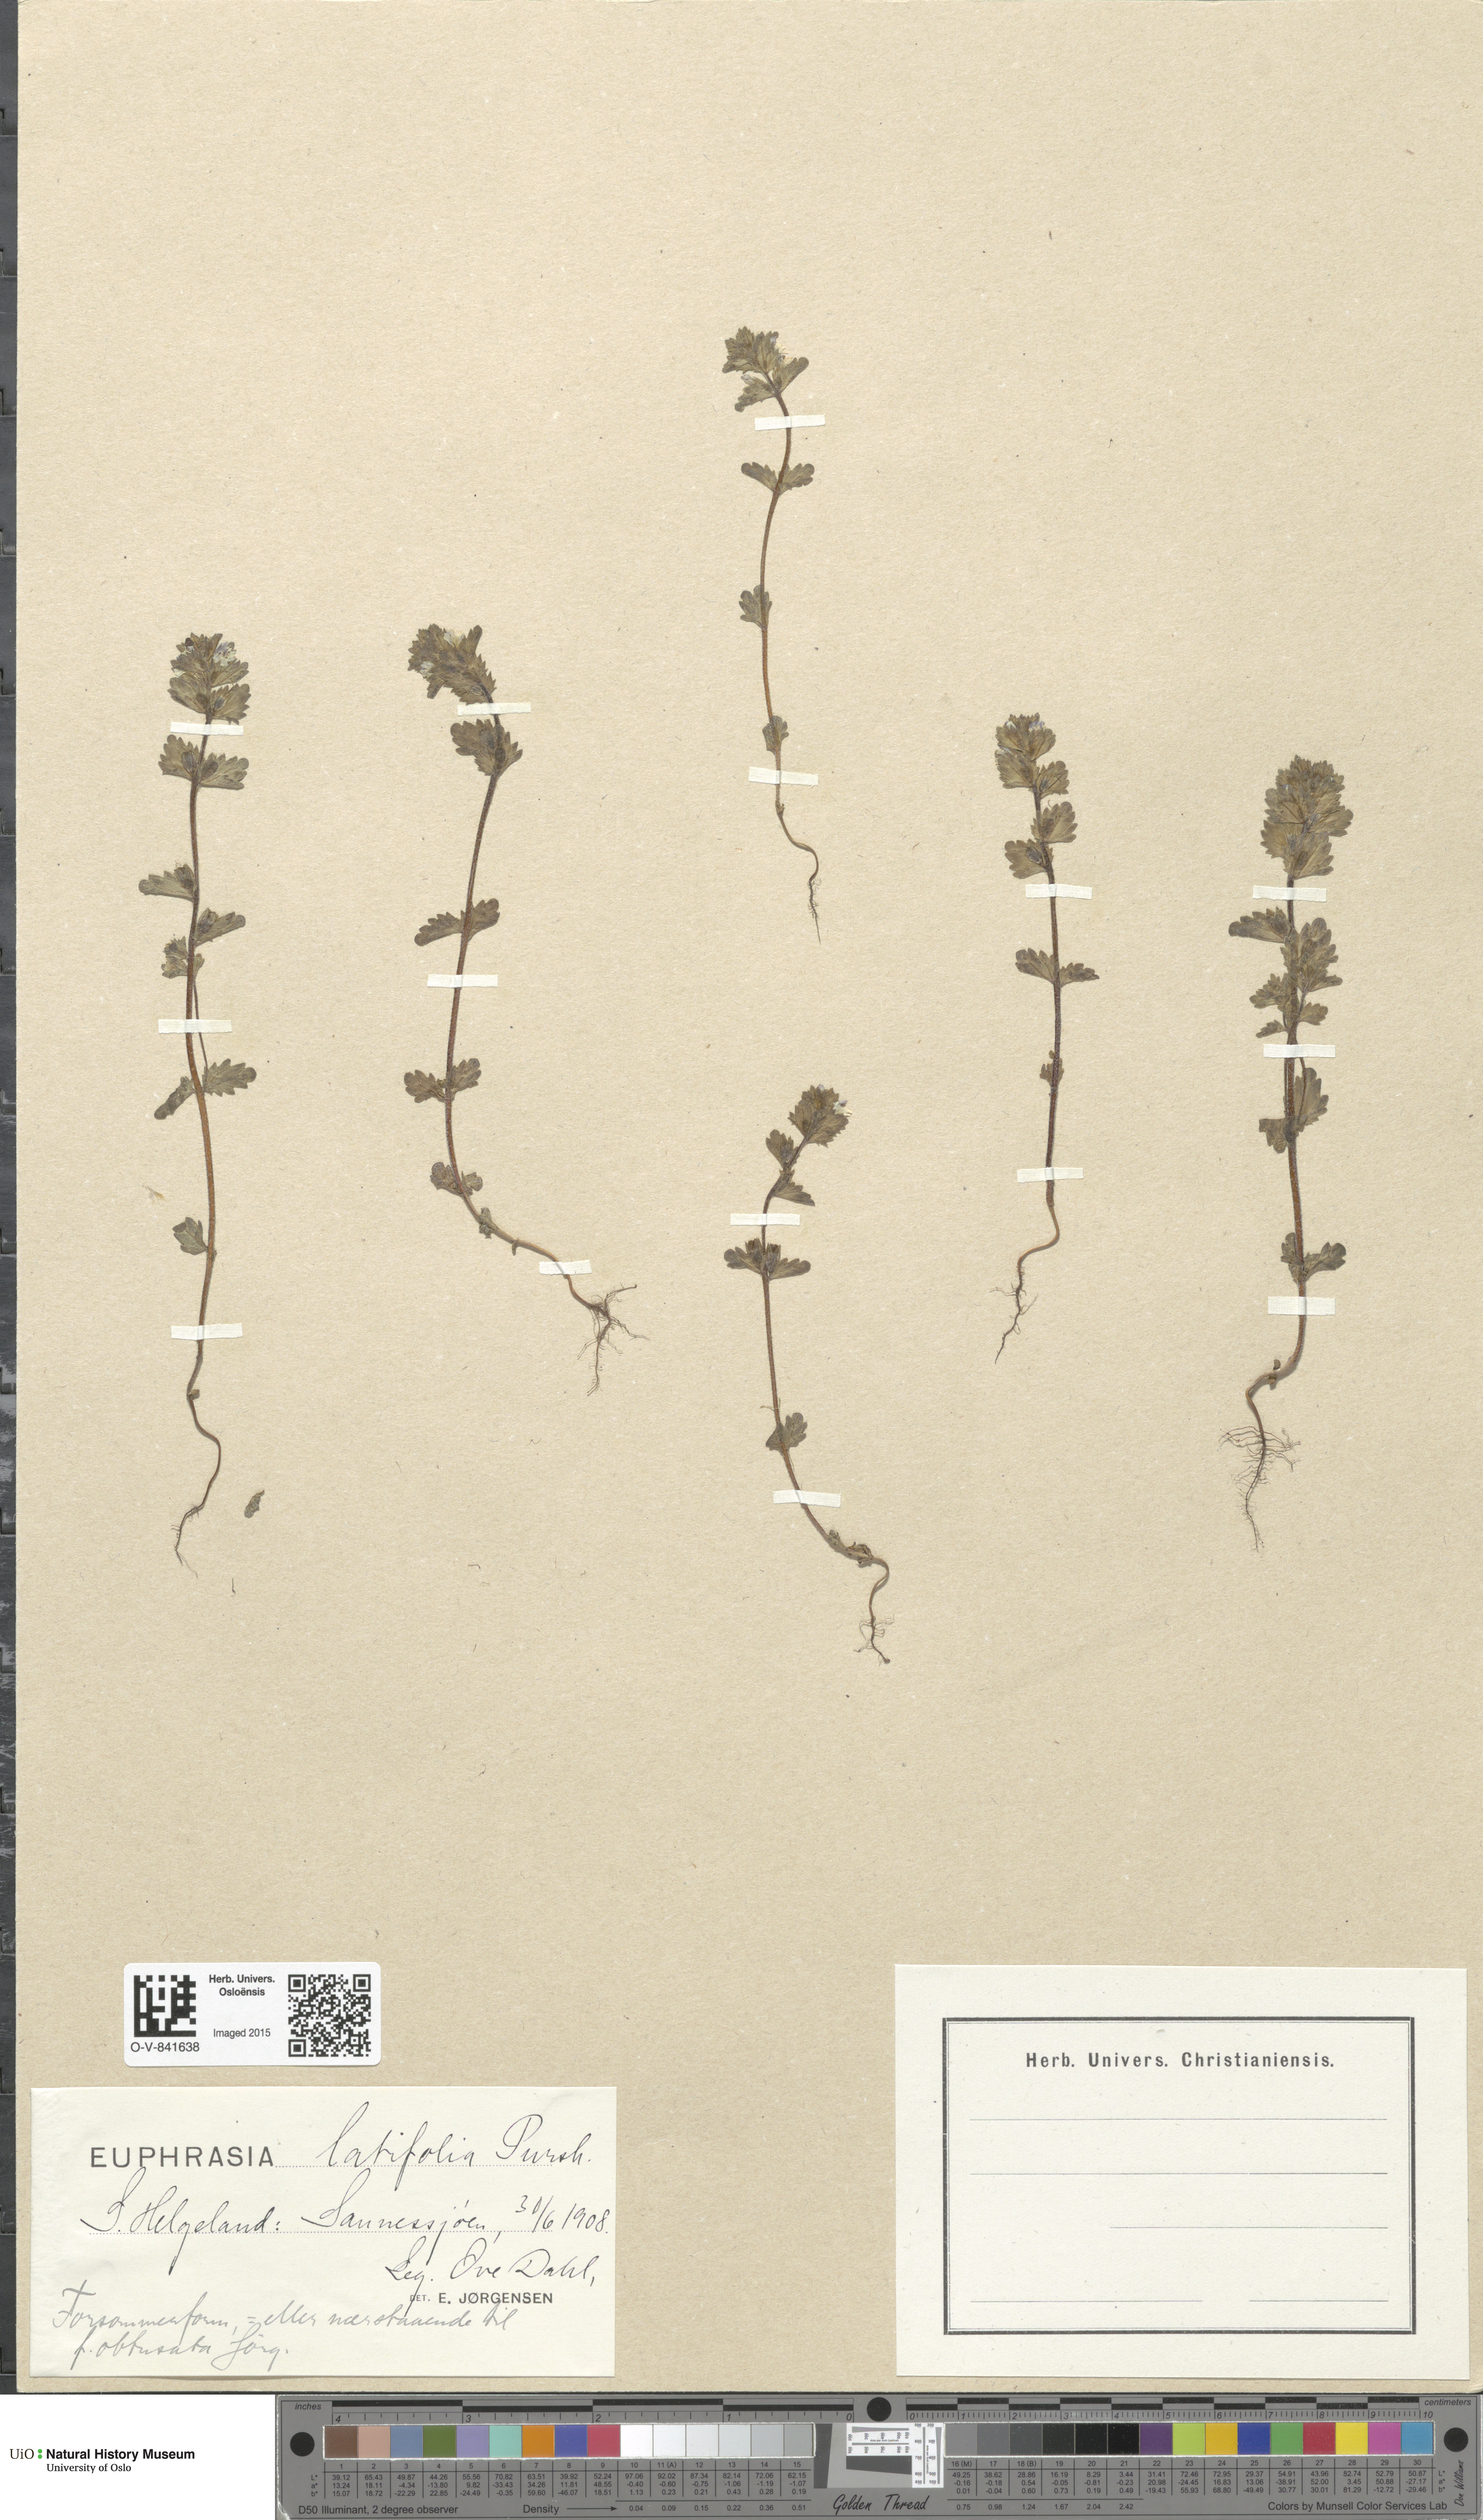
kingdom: Plantae
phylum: Tracheophyta
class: Magnoliopsida
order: Lamiales
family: Orobanchaceae
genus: Euphrasia
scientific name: Euphrasia wettsteinii
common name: Wettstein's eyebright
